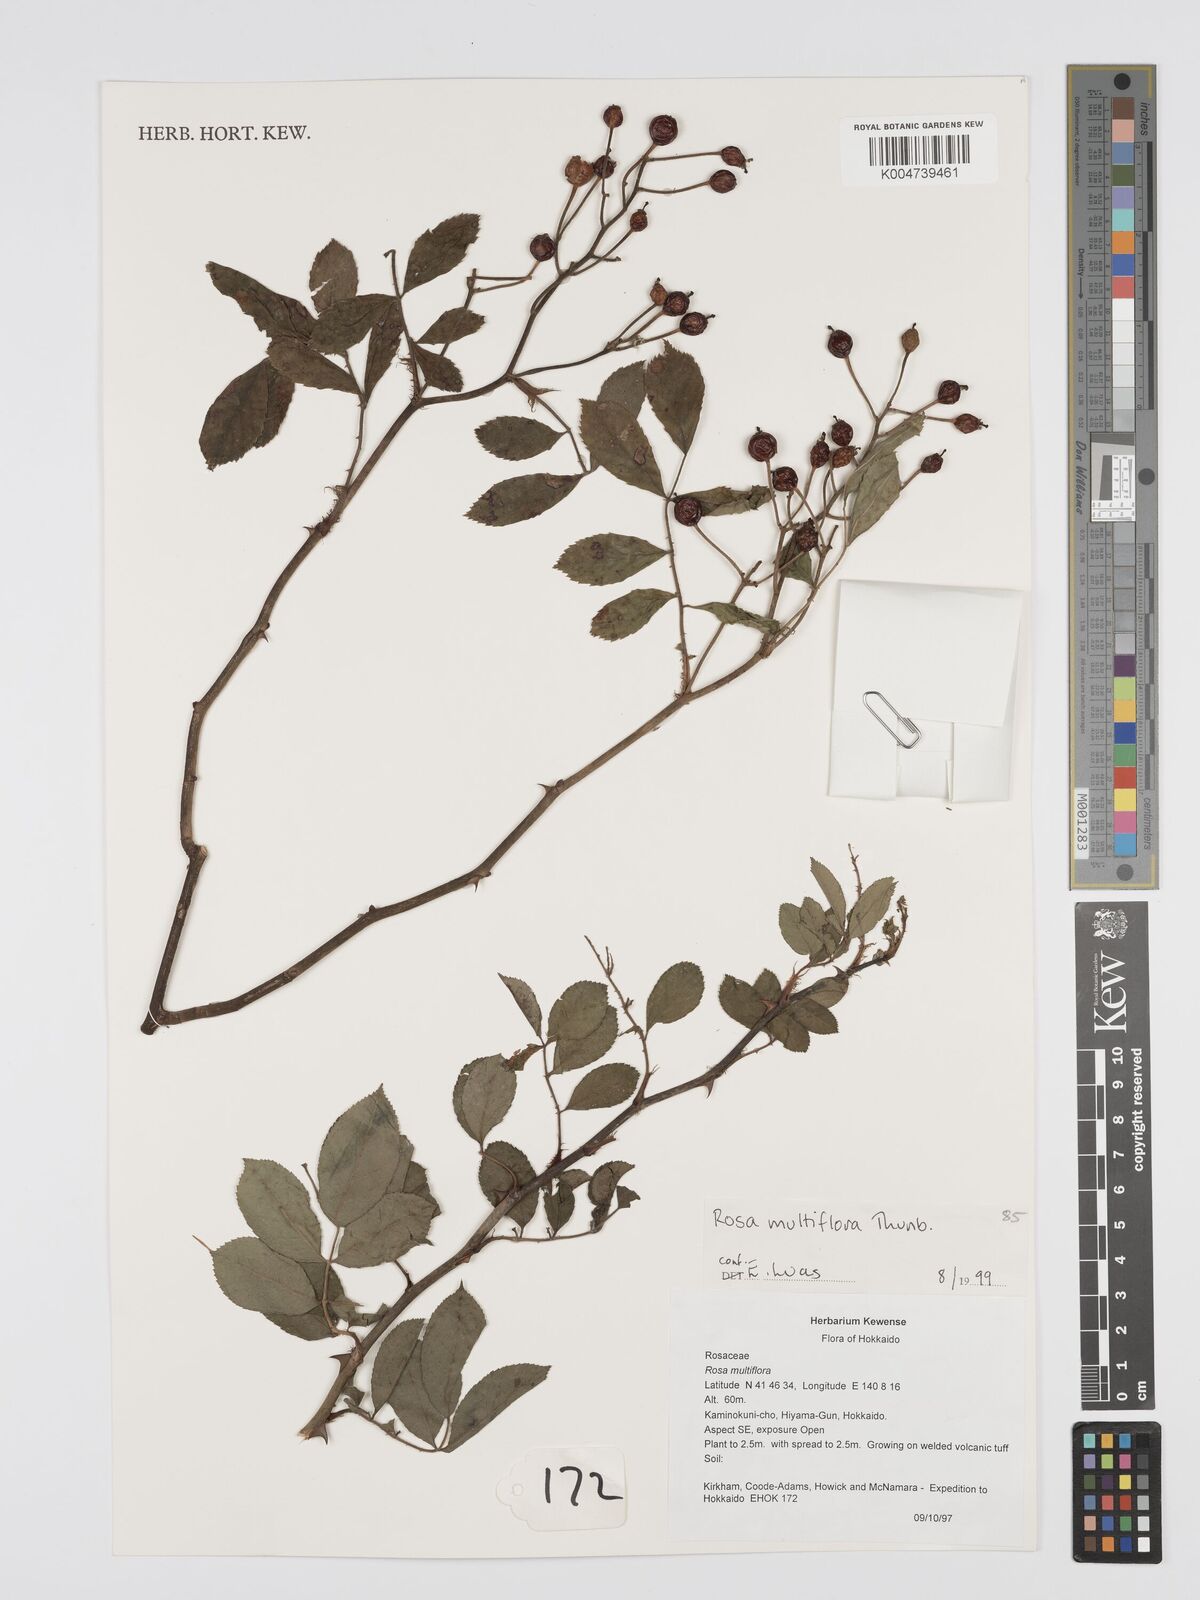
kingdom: Plantae
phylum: Tracheophyta
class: Magnoliopsida
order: Rosales
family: Rosaceae
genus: Rosa
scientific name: Rosa
